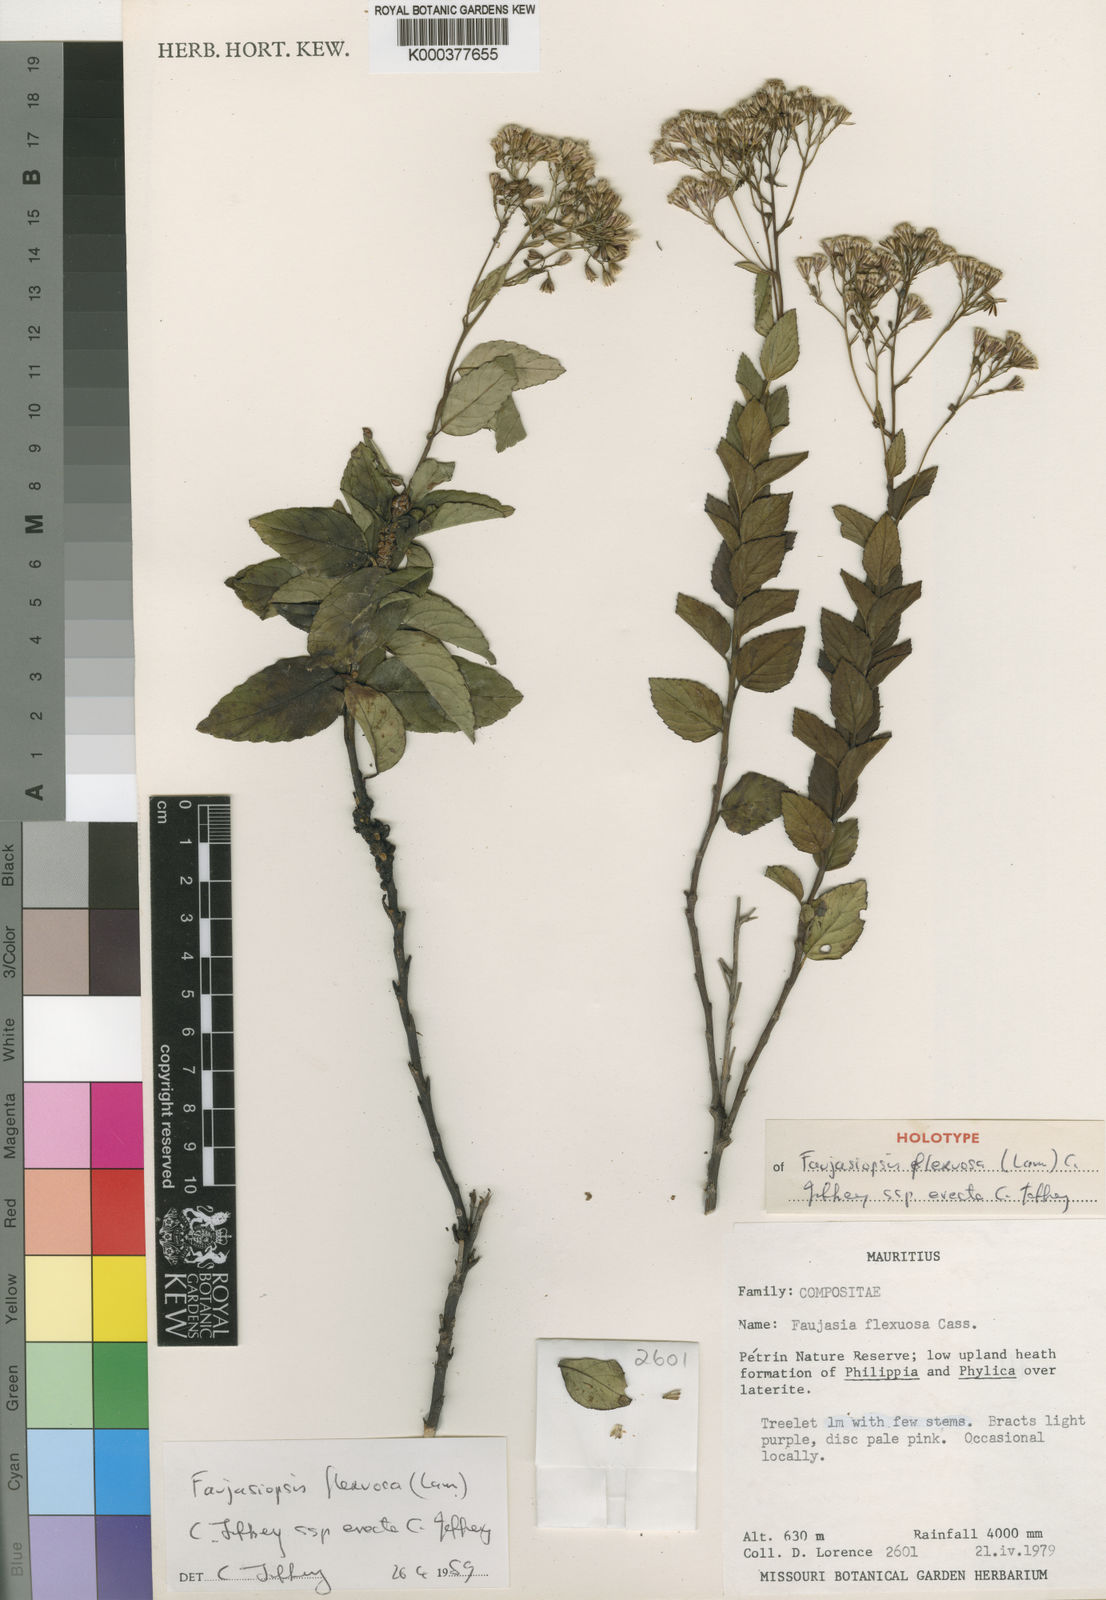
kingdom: Plantae
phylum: Tracheophyta
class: Magnoliopsida
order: Asterales
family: Asteraceae
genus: Faujasiopsis
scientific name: Faujasiopsis flexuosa
